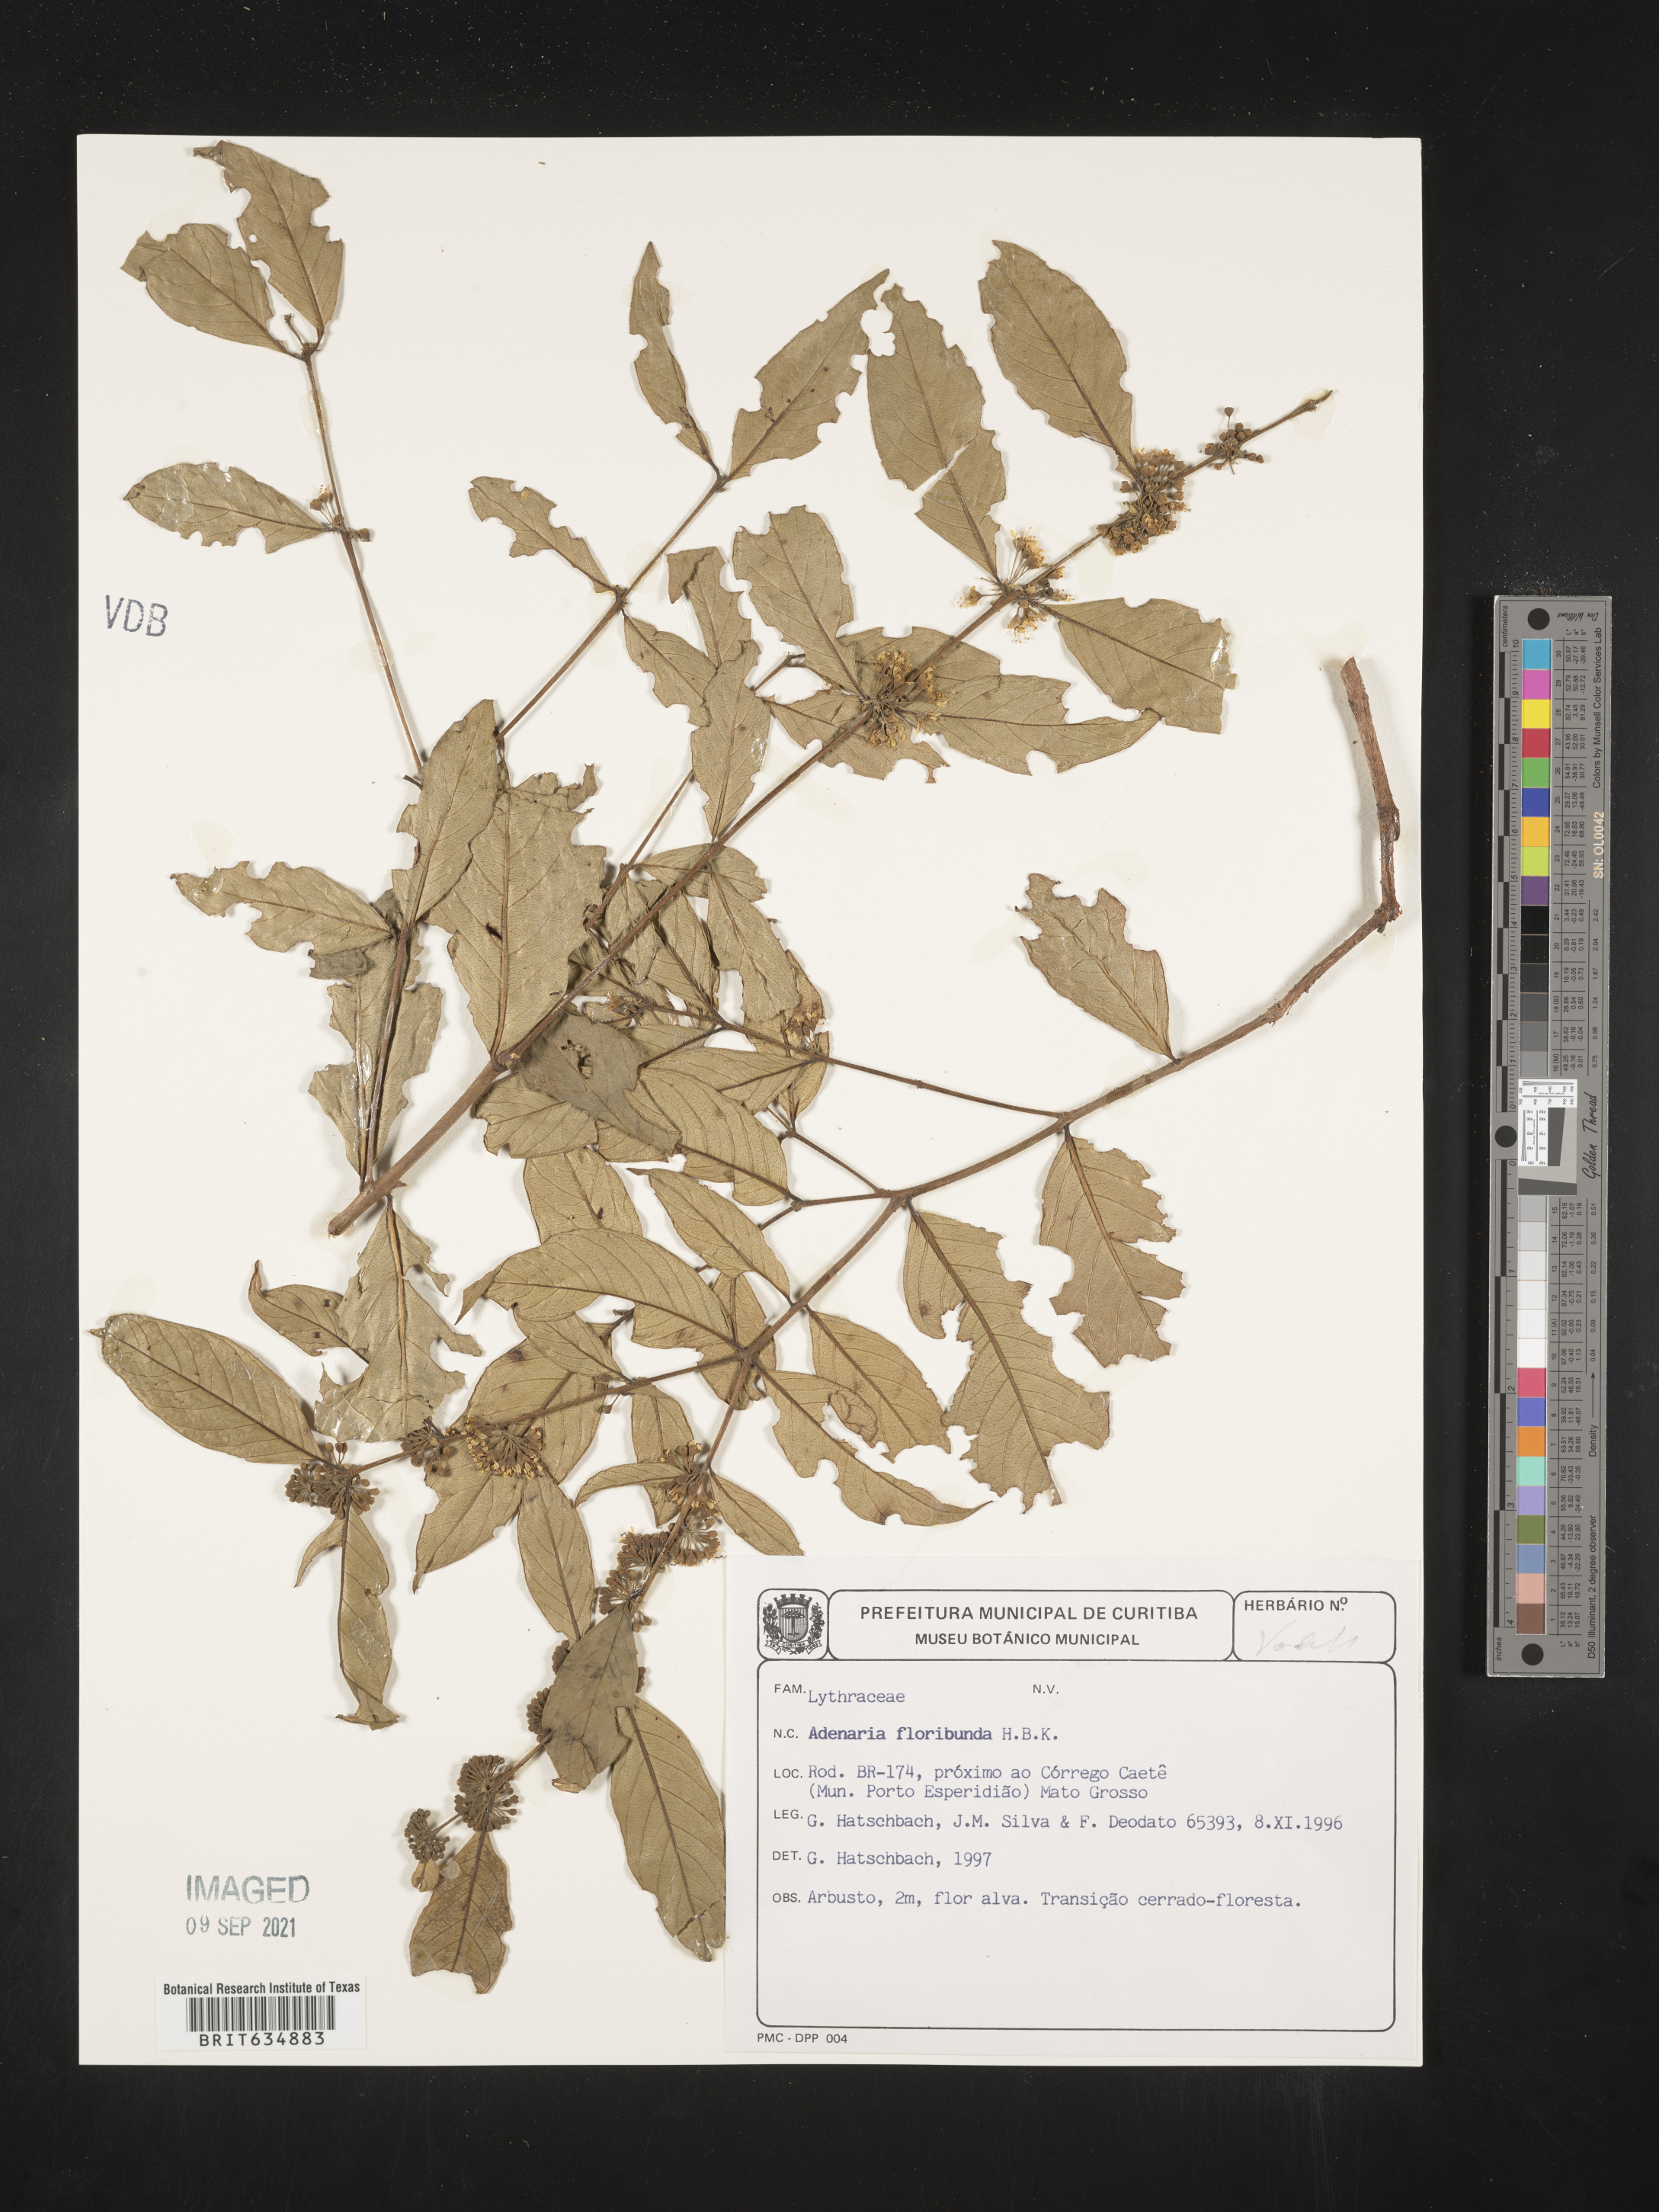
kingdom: Plantae
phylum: Tracheophyta
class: Magnoliopsida
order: Myrtales
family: Lythraceae
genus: Adenaria
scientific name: Adenaria
